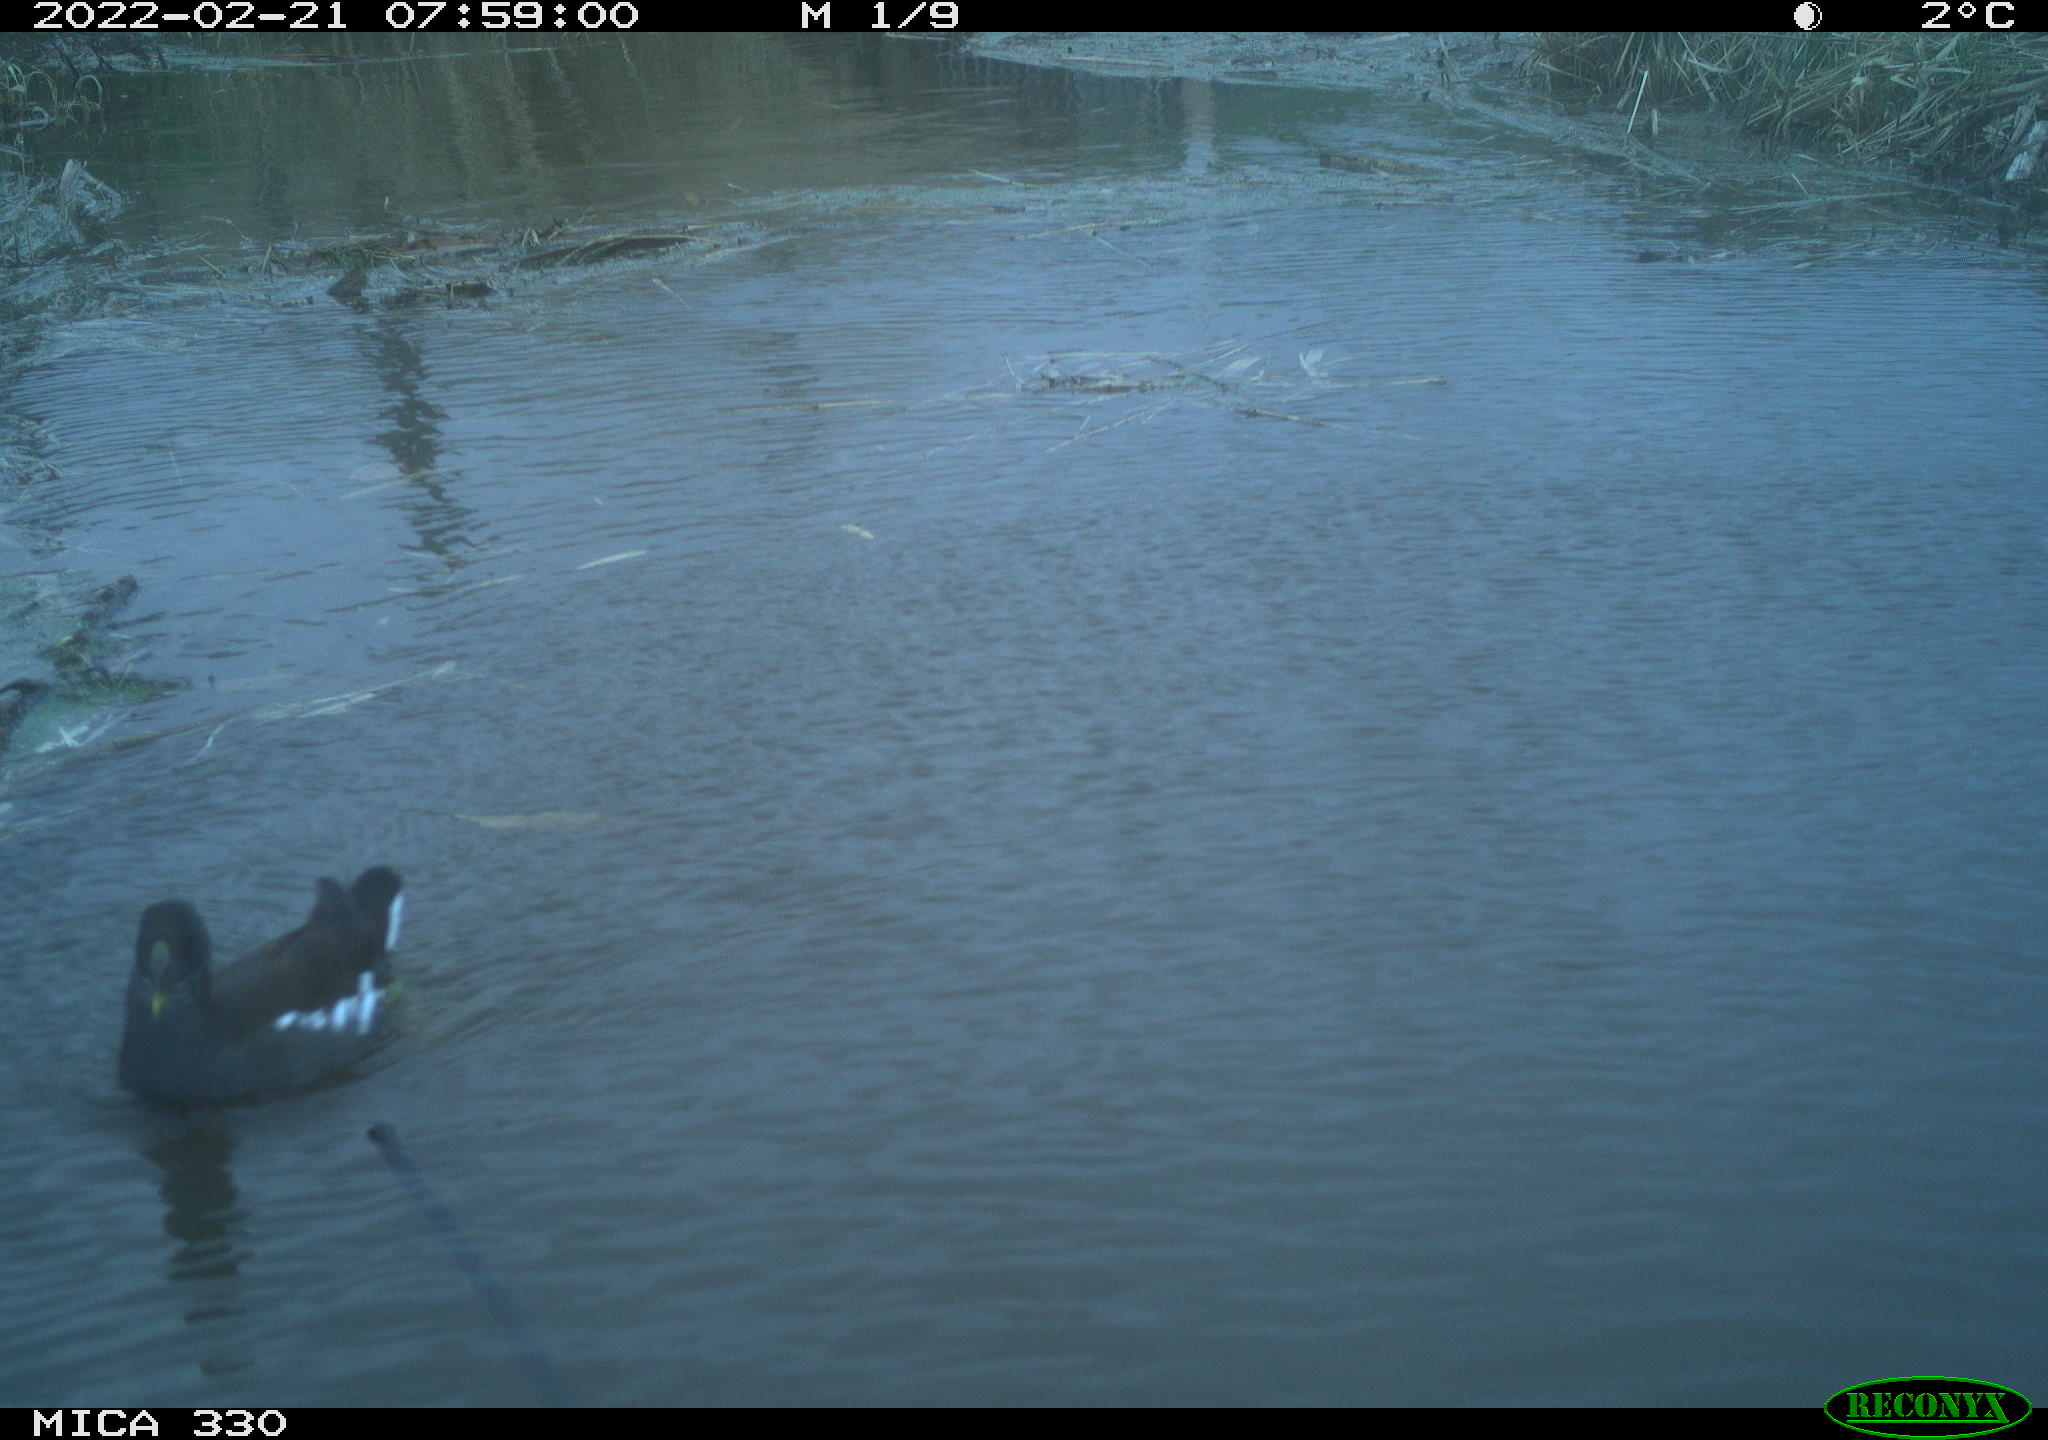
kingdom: Animalia
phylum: Chordata
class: Aves
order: Gruiformes
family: Rallidae
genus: Gallinula
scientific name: Gallinula chloropus
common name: Common moorhen
